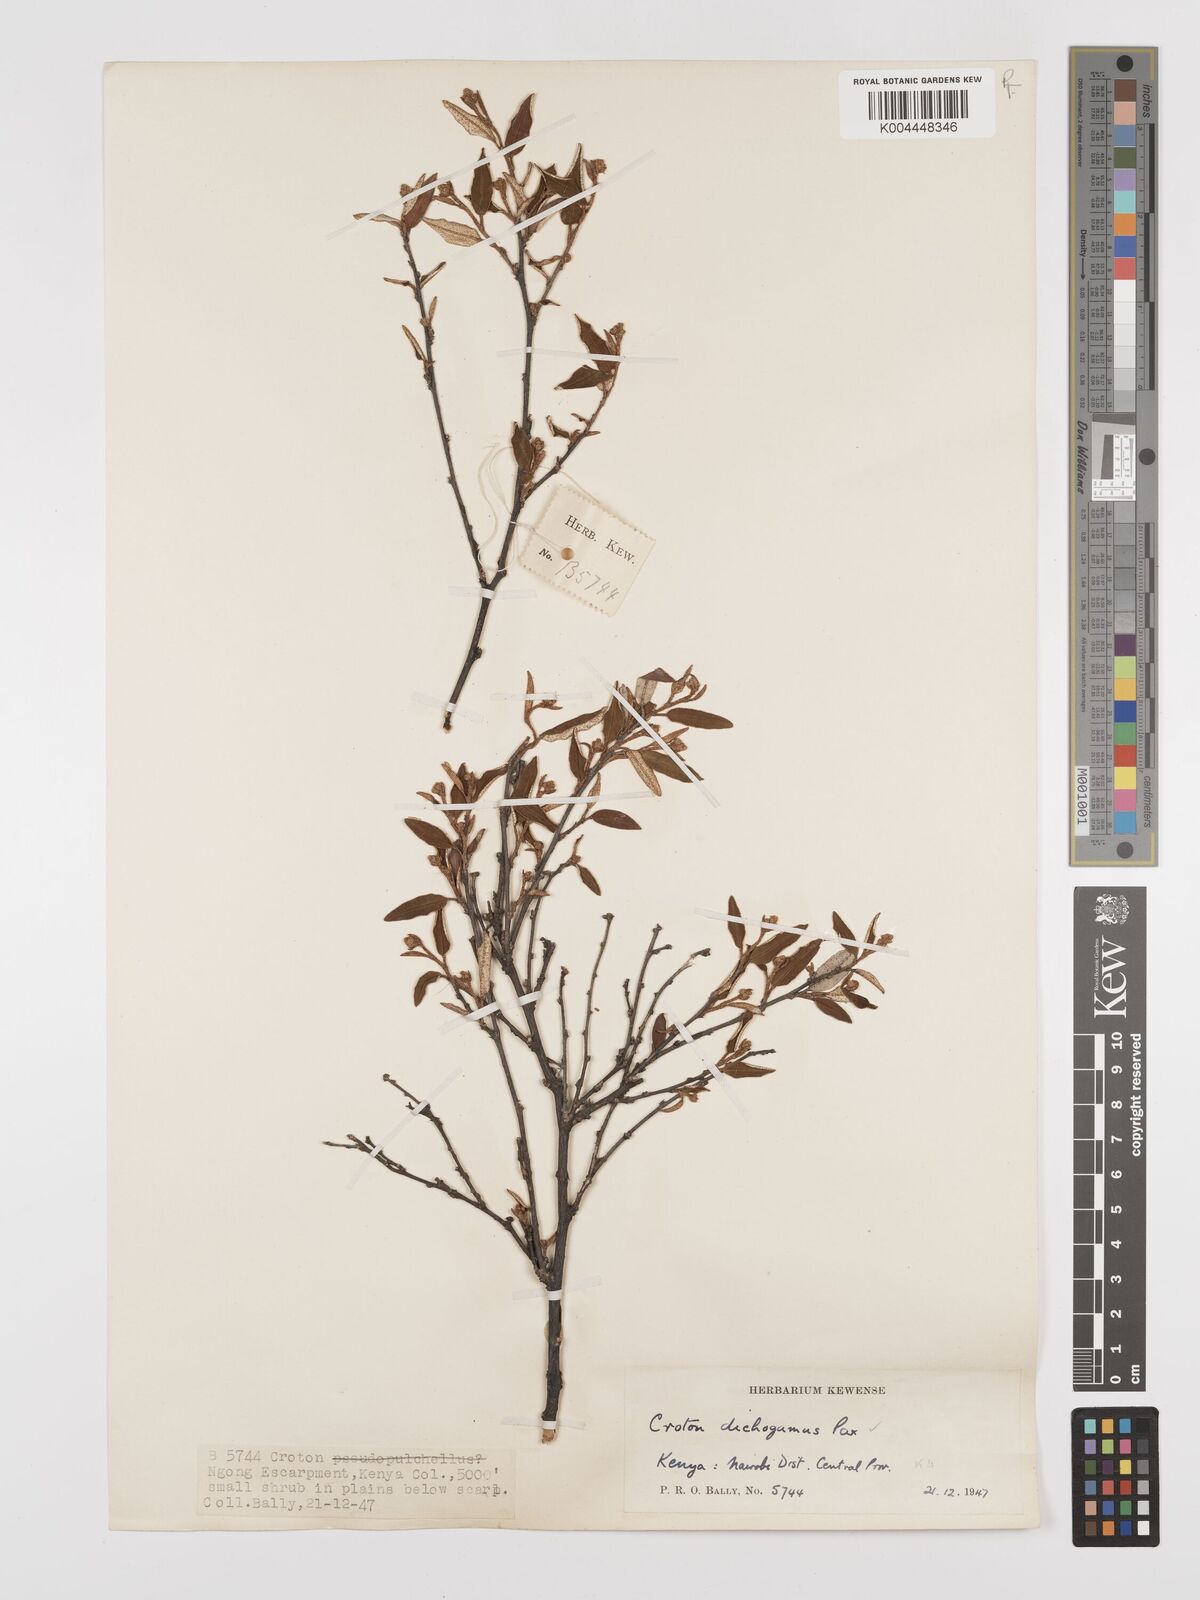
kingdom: Plantae
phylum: Tracheophyta
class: Magnoliopsida
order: Malpighiales
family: Euphorbiaceae
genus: Croton
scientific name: Croton dichogamus
